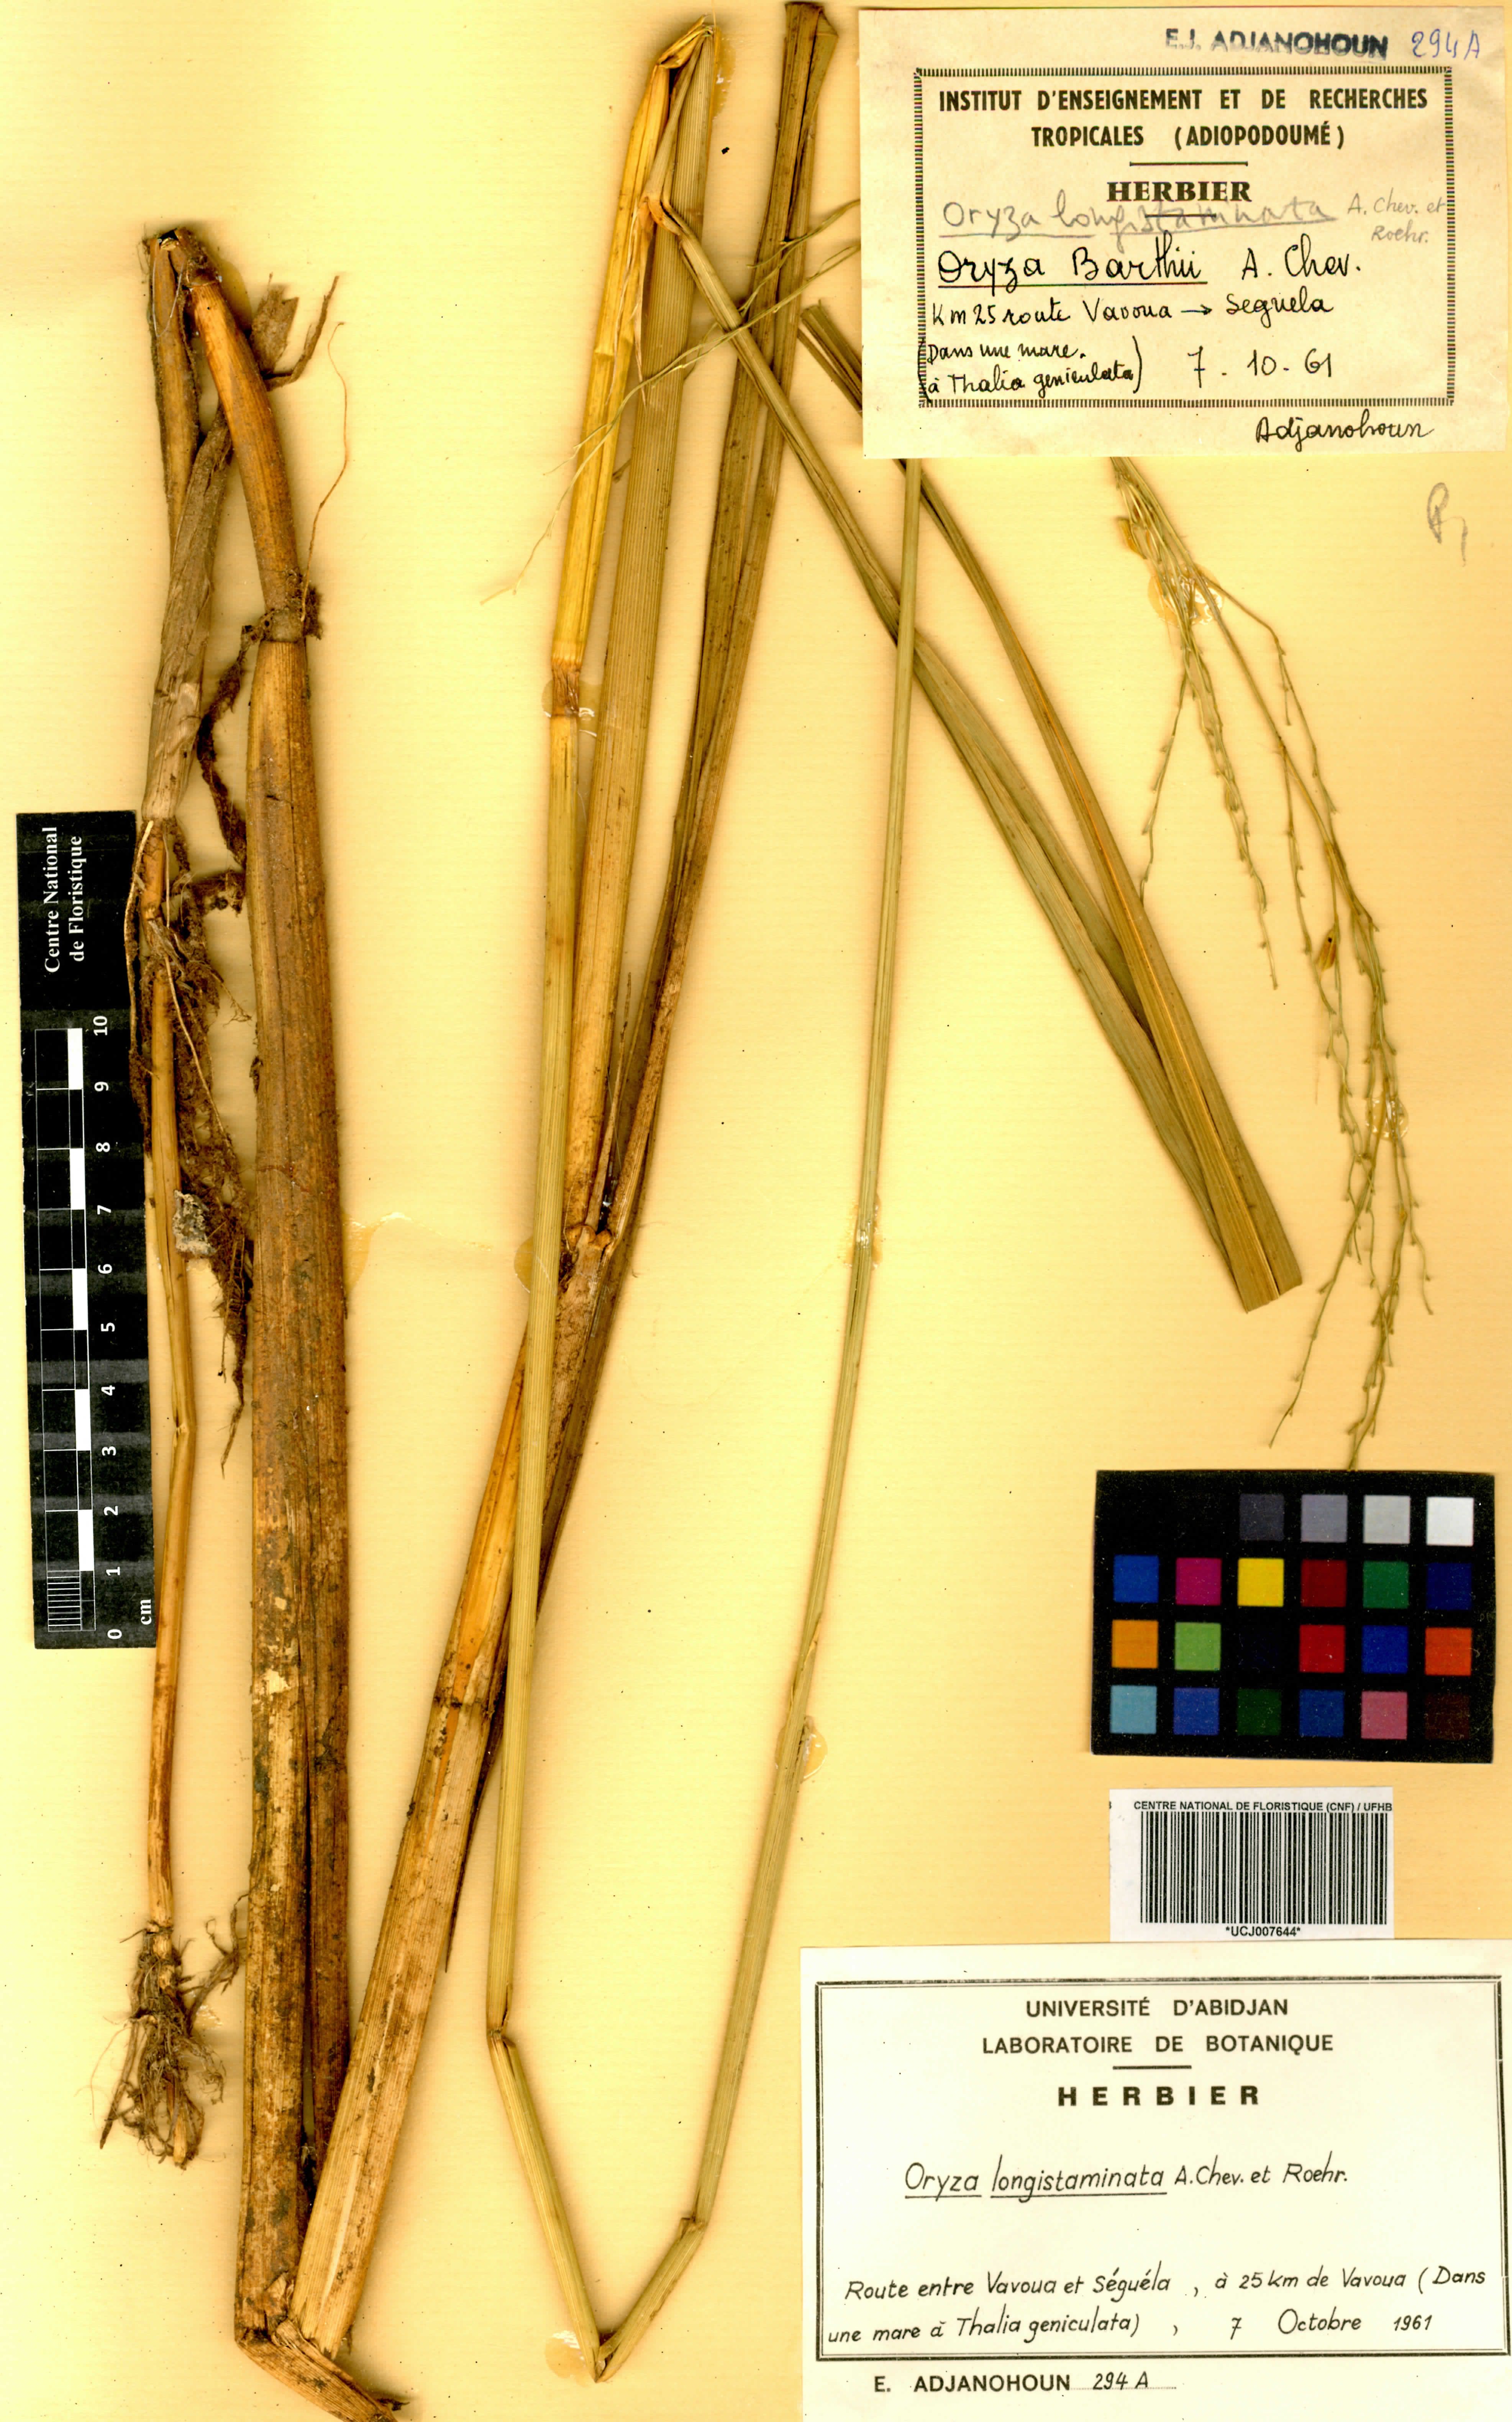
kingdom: Plantae
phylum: Tracheophyta
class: Liliopsida
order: Poales
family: Poaceae
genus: Oryza
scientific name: Oryza longistaminata
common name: Red rice
